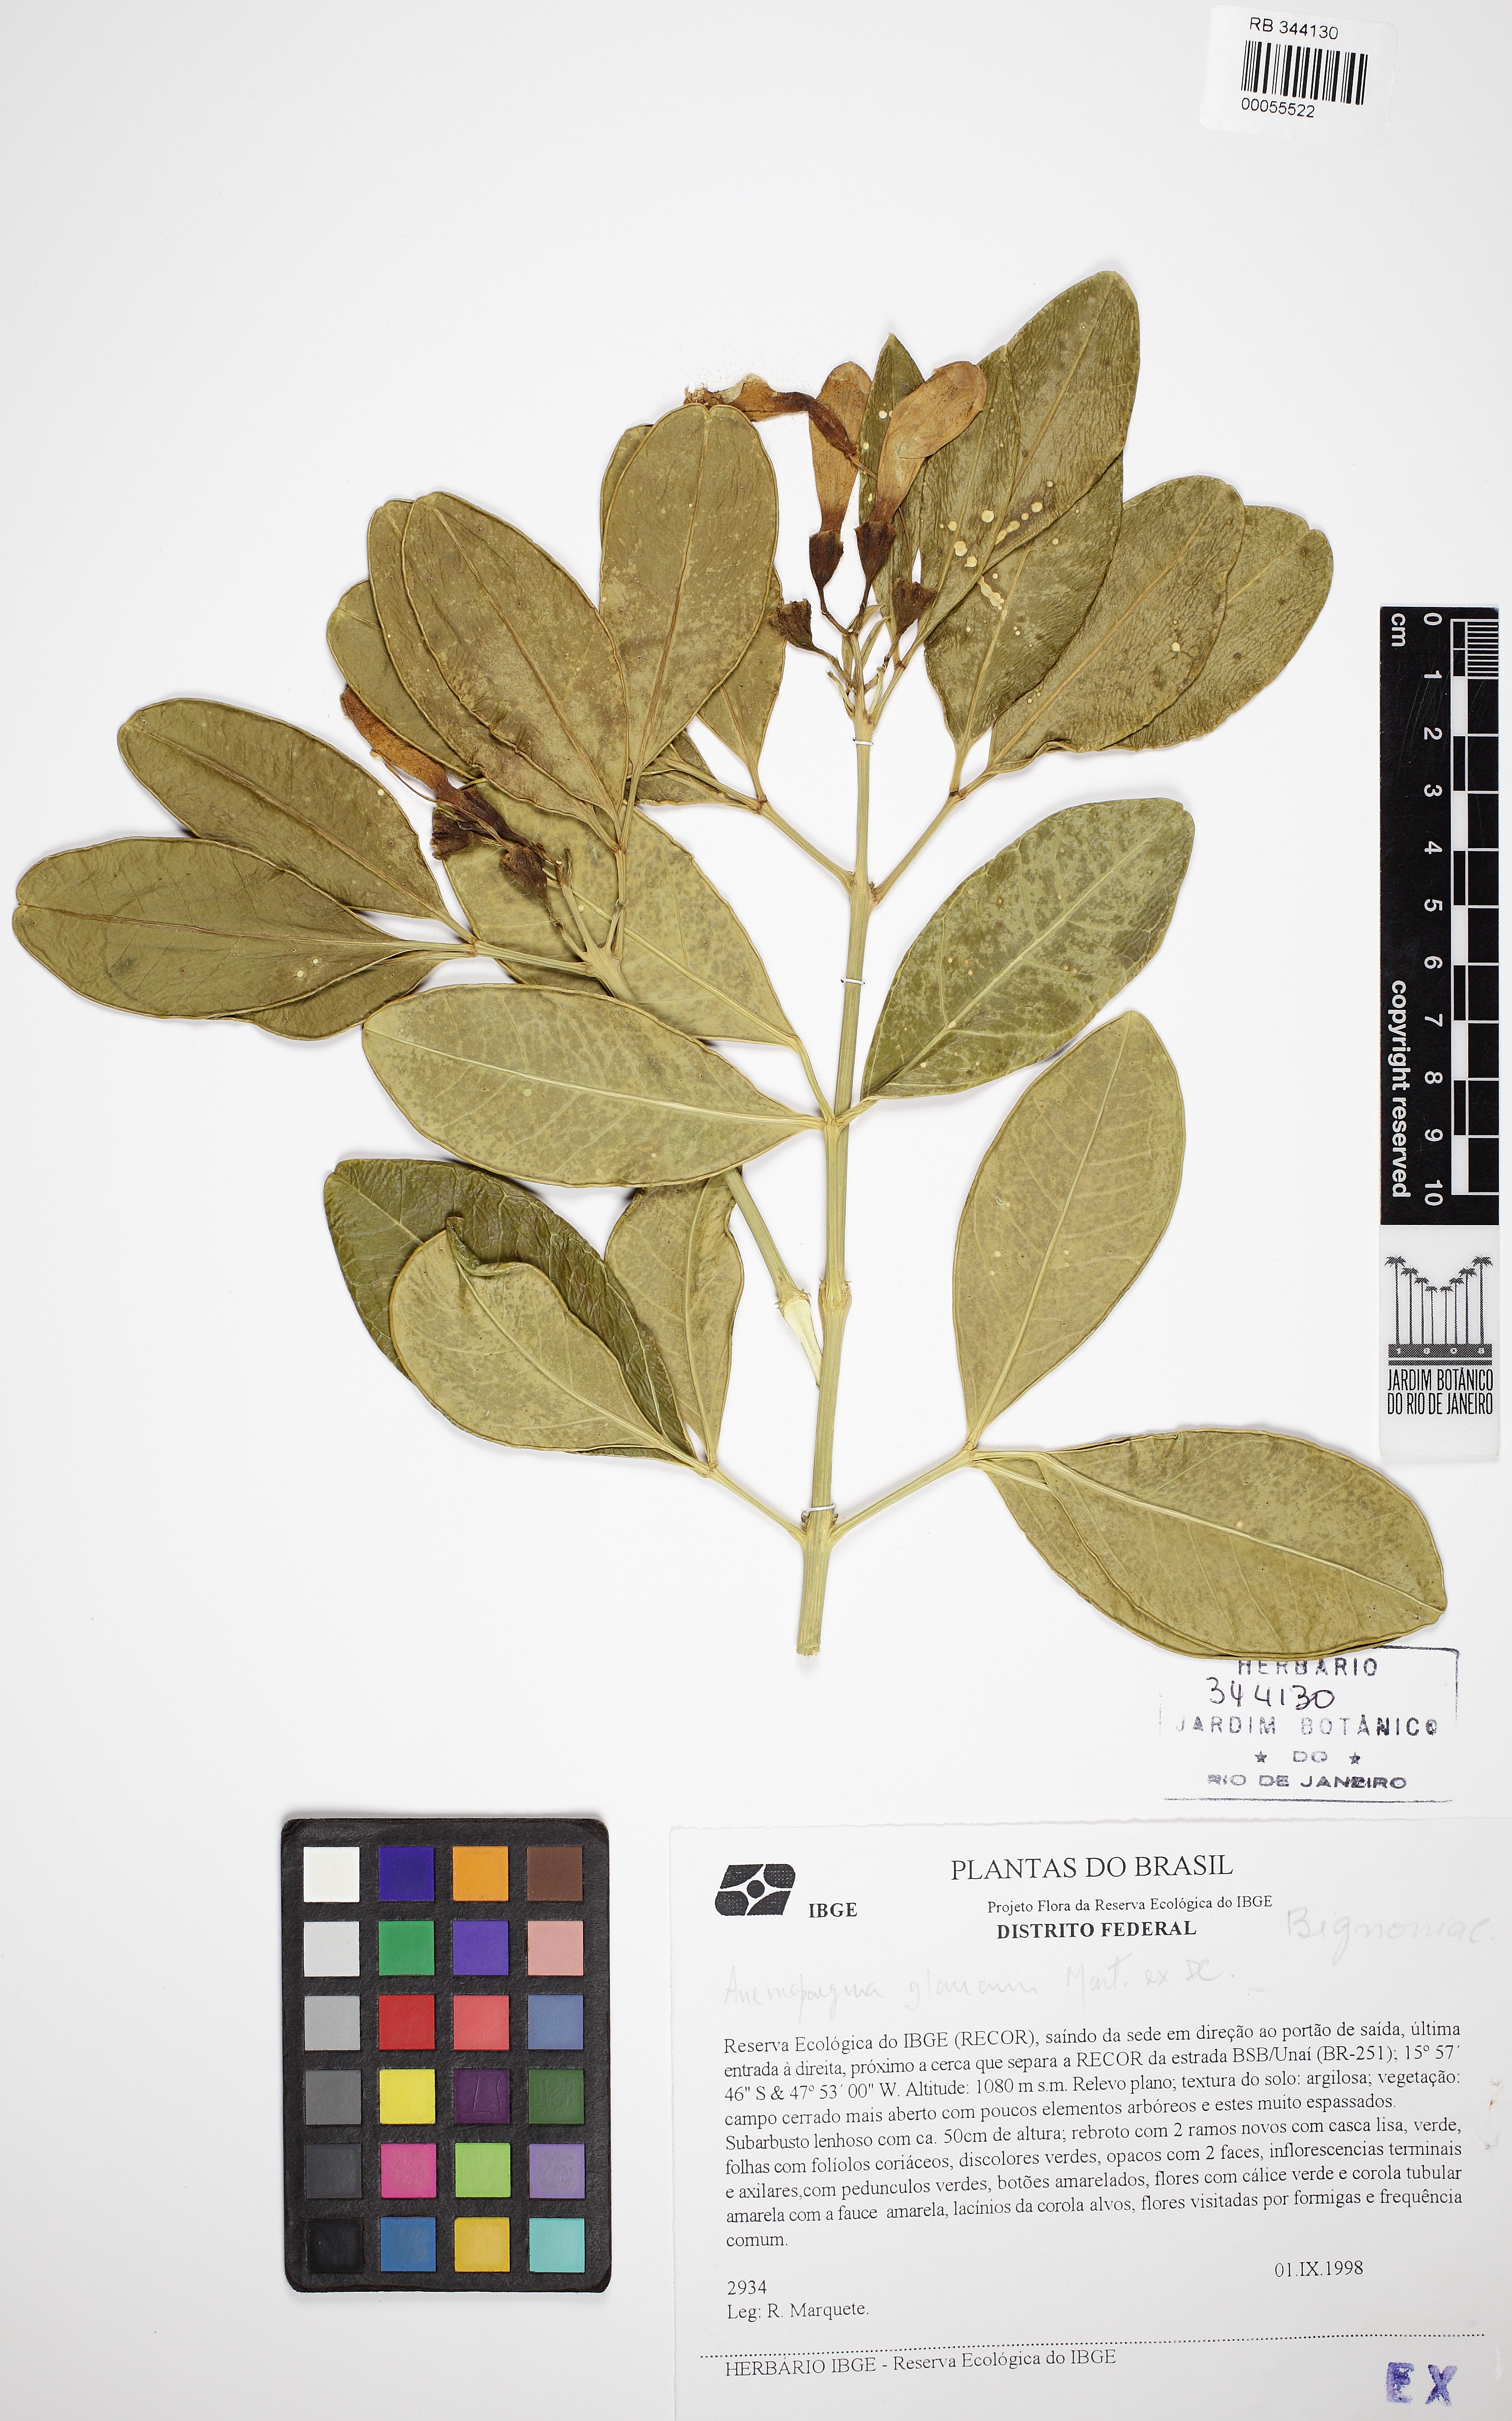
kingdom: Plantae
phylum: Tracheophyta
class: Magnoliopsida
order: Lamiales
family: Bignoniaceae
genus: Anemopaegma
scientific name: Anemopaegma glaucum
